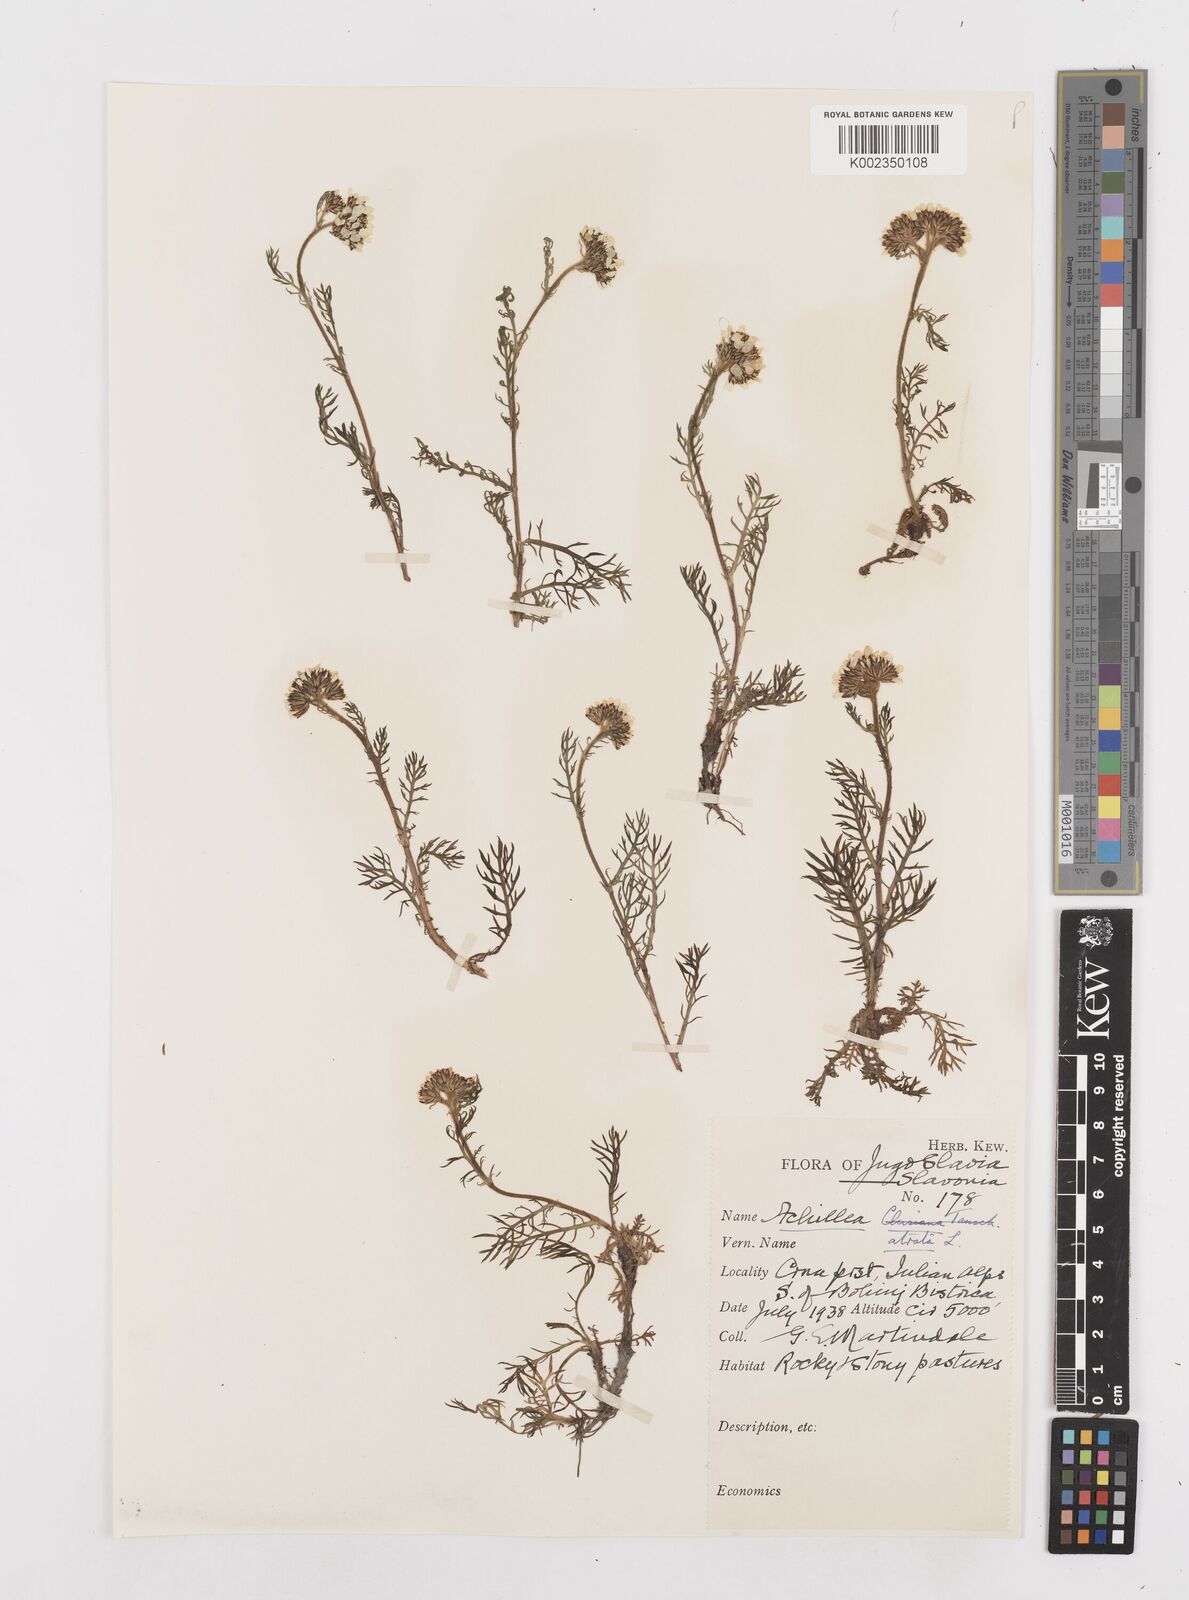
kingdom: Plantae
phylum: Tracheophyta
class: Magnoliopsida
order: Asterales
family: Asteraceae
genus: Achillea
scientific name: Achillea atrata
